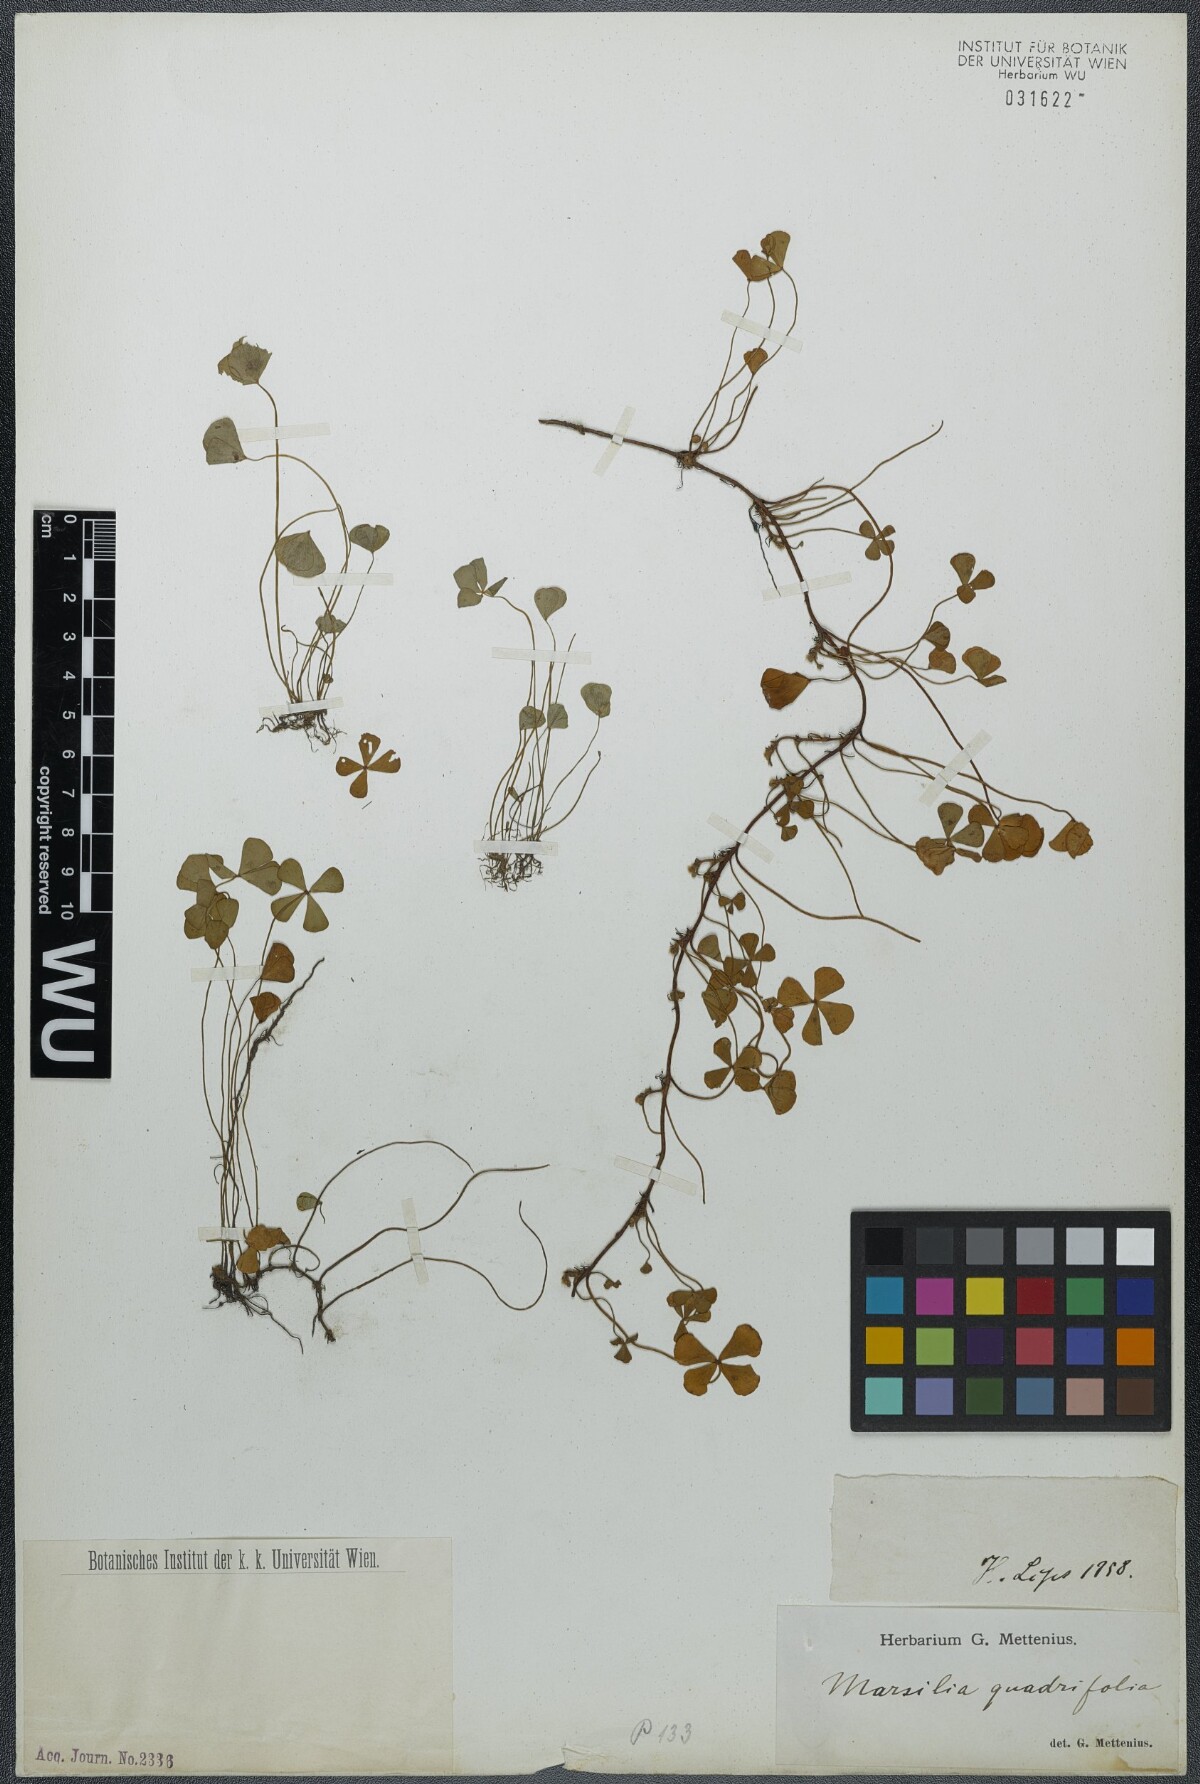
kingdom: Plantae
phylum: Tracheophyta
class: Polypodiopsida
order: Salviniales
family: Marsileaceae
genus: Marsilea
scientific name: Marsilea quadrifolia
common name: Water shamrock
